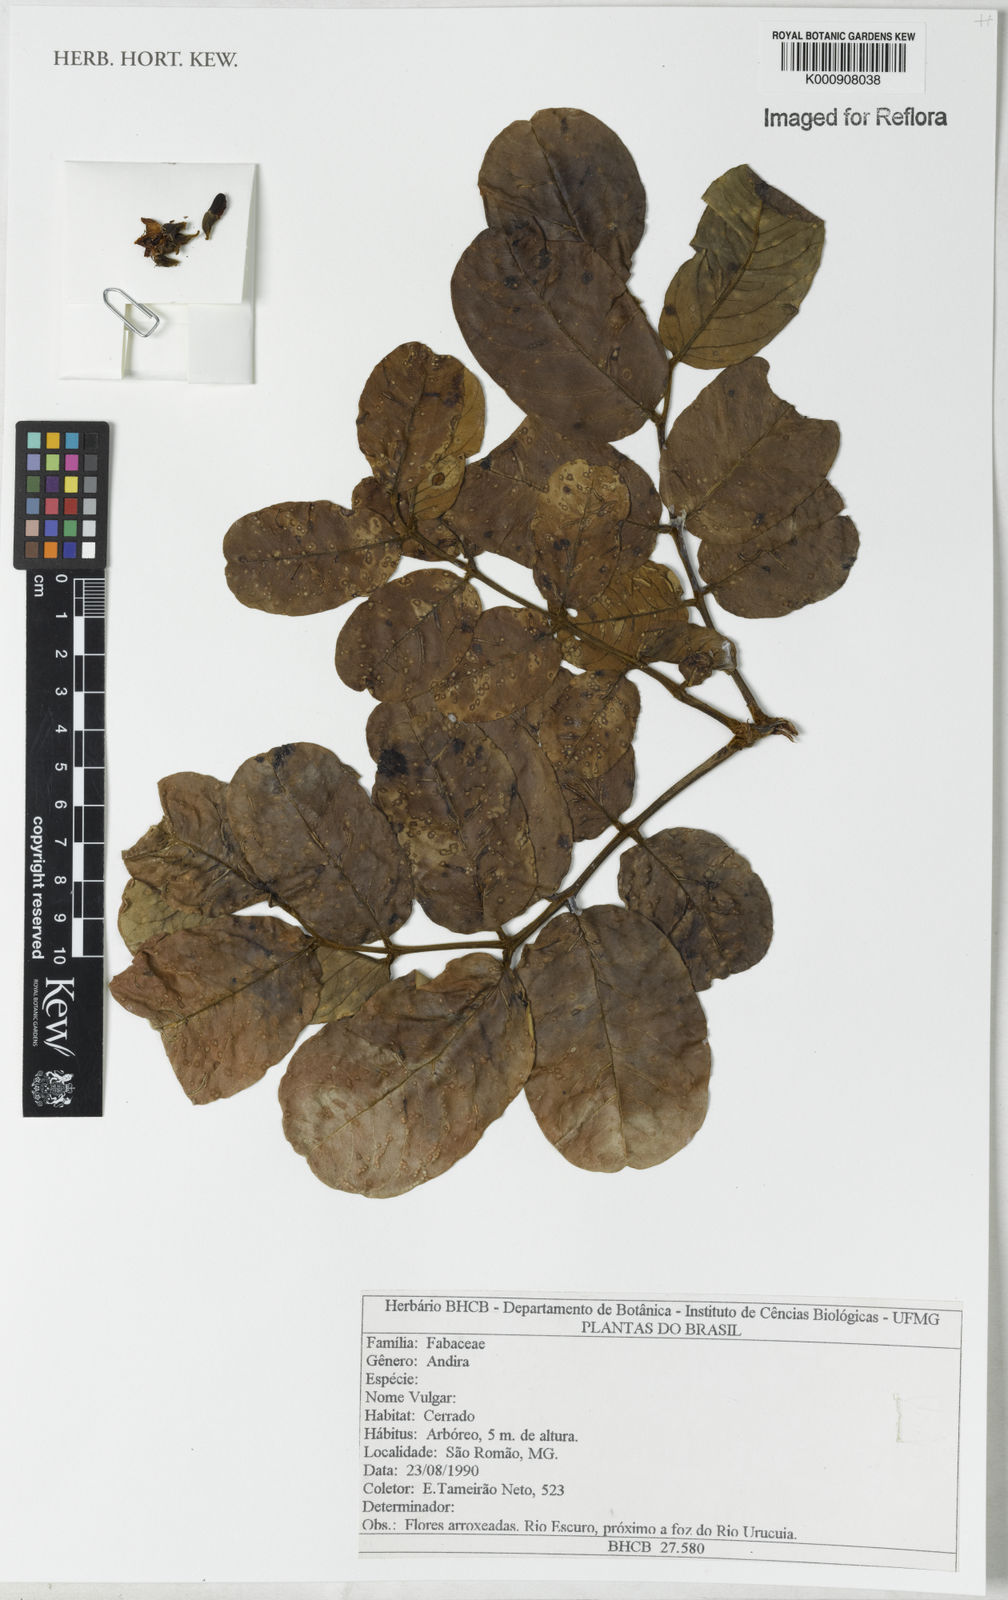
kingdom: Plantae
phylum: Tracheophyta
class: Magnoliopsida
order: Fabales
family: Fabaceae
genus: Andira
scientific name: Andira
